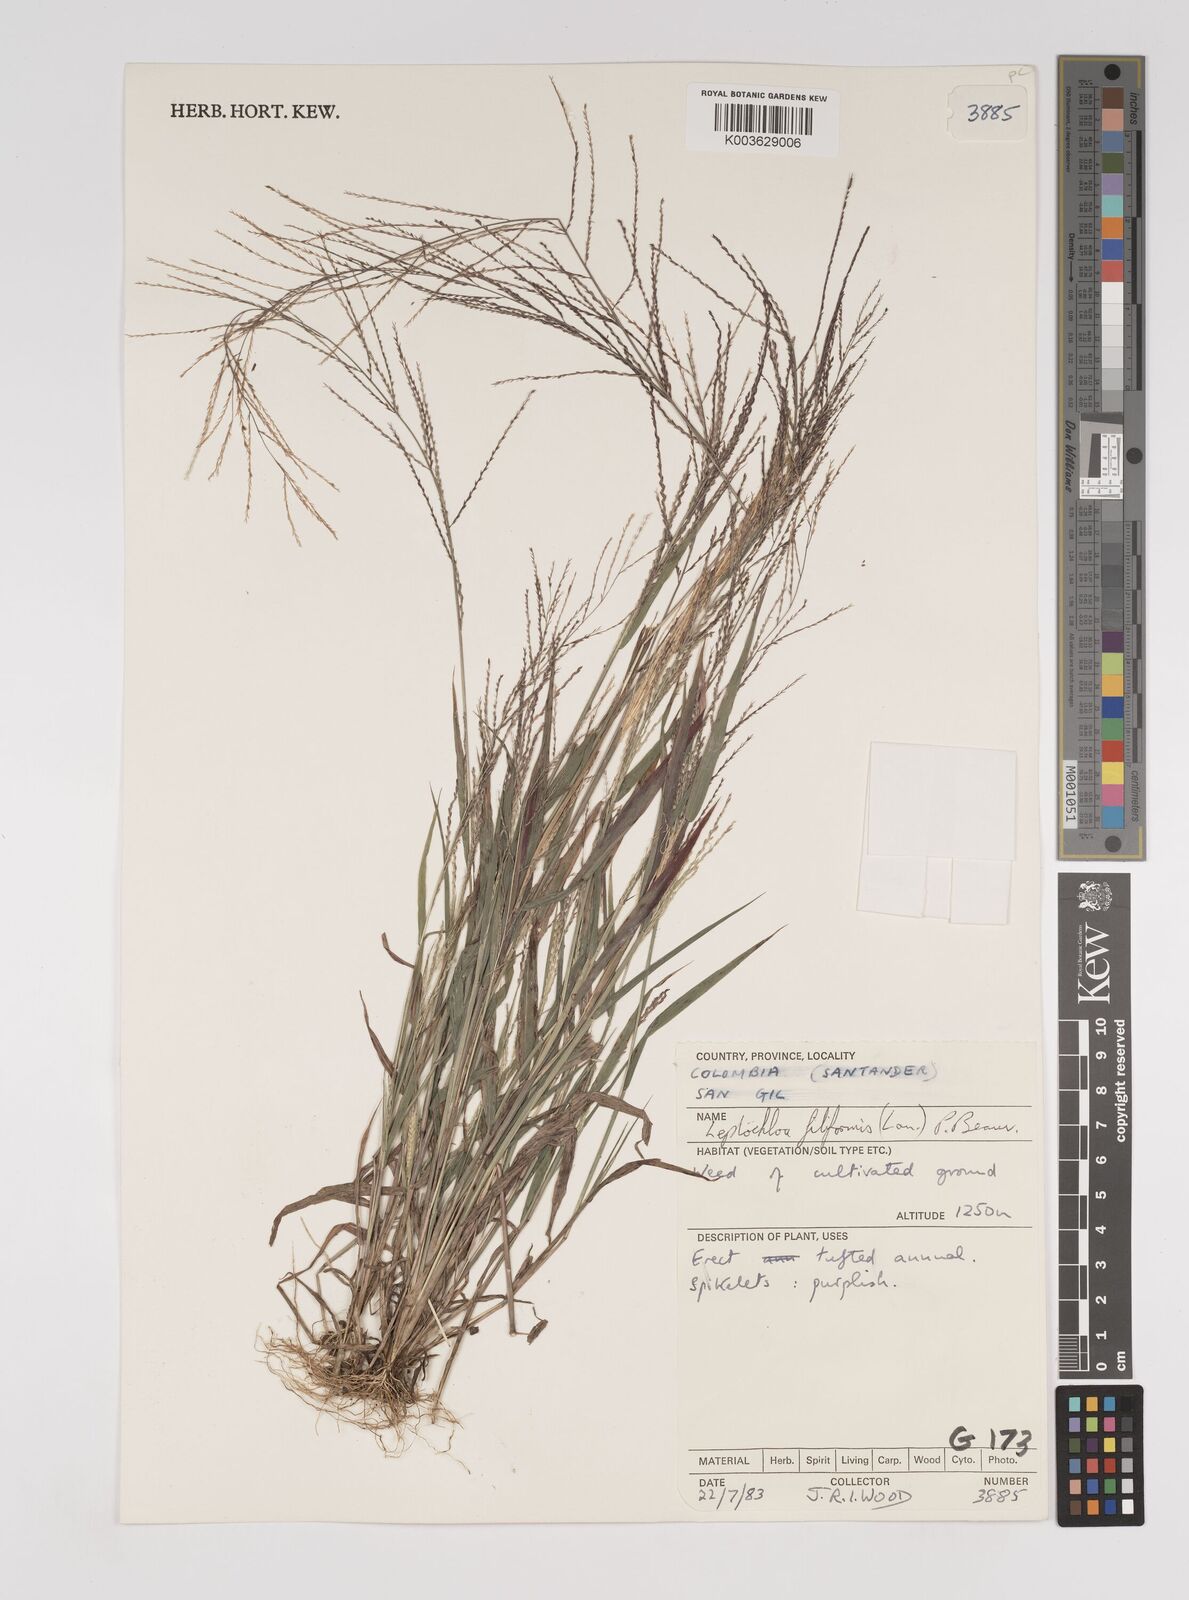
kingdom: Plantae
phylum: Tracheophyta
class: Liliopsida
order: Poales
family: Poaceae
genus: Leptochloa
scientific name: Leptochloa panicea
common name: Mucronate sprangletop
